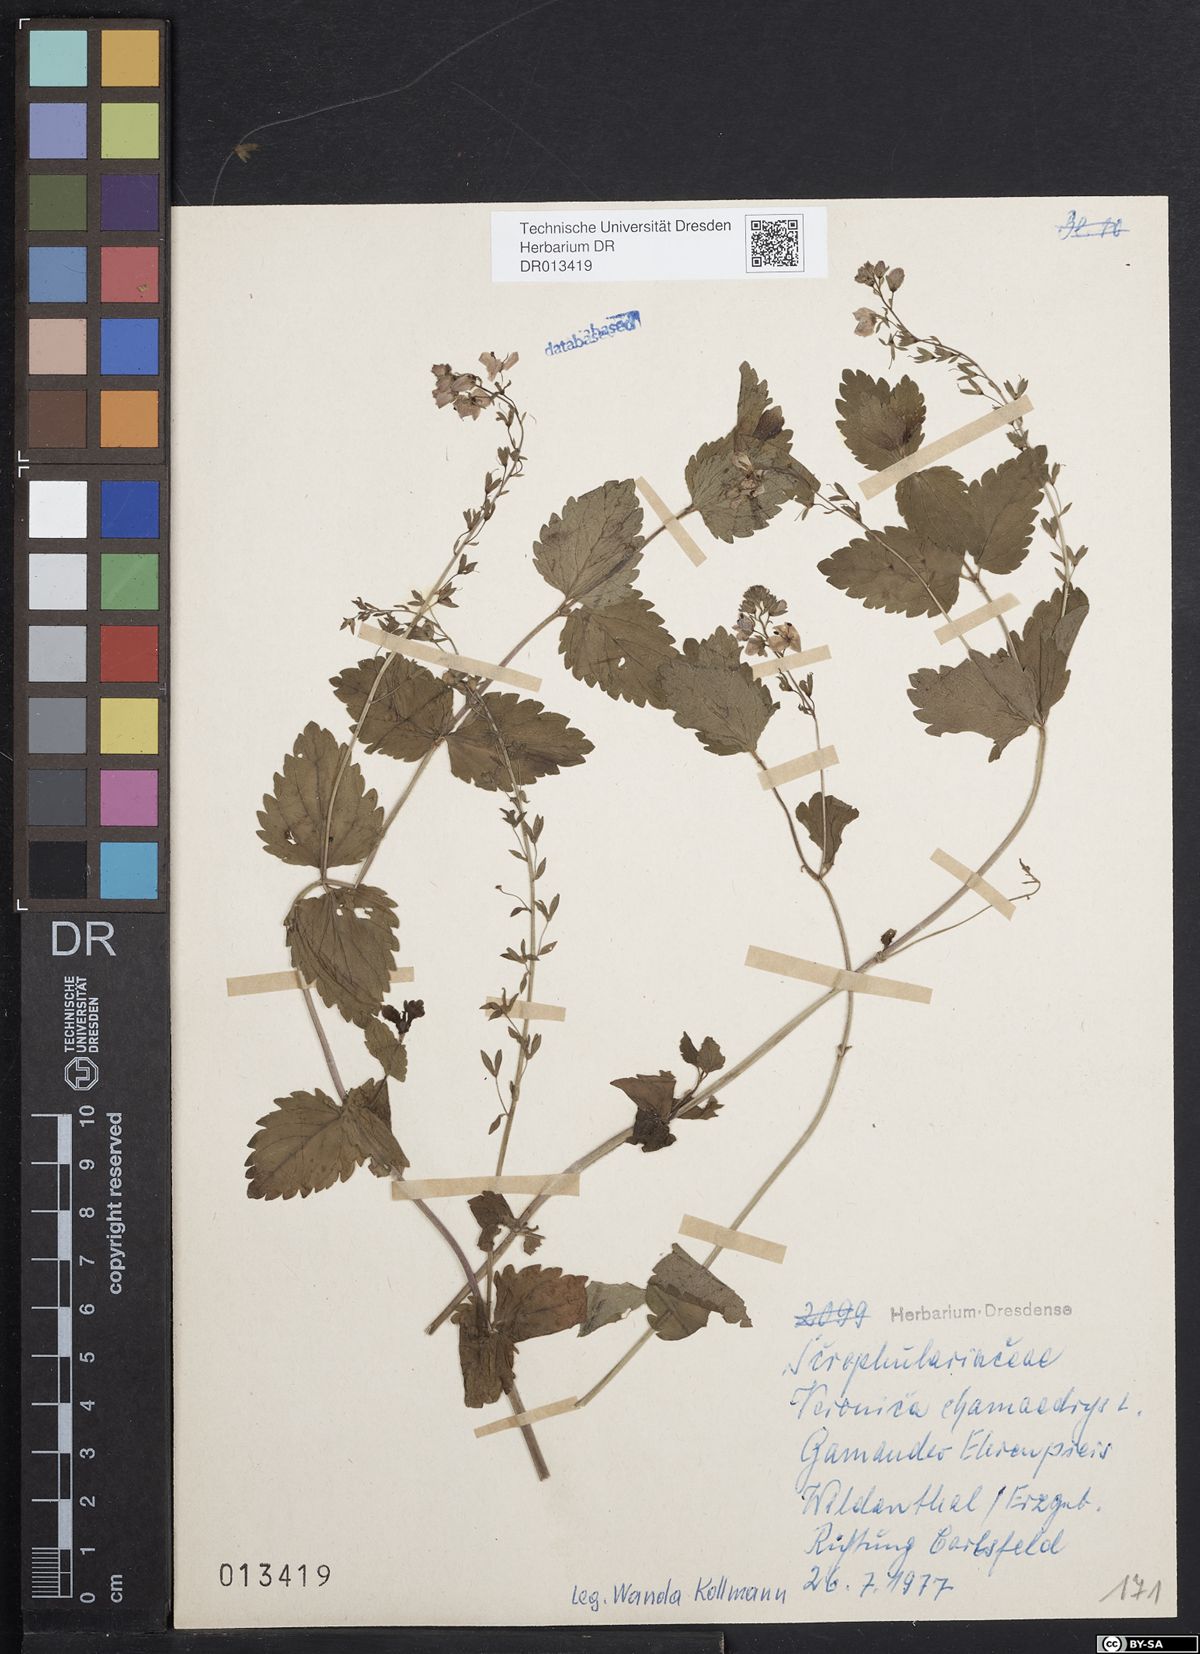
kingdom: Plantae
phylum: Tracheophyta
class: Magnoliopsida
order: Lamiales
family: Plantaginaceae
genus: Veronica
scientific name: Veronica chamaedrys
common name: Germander speedwell
